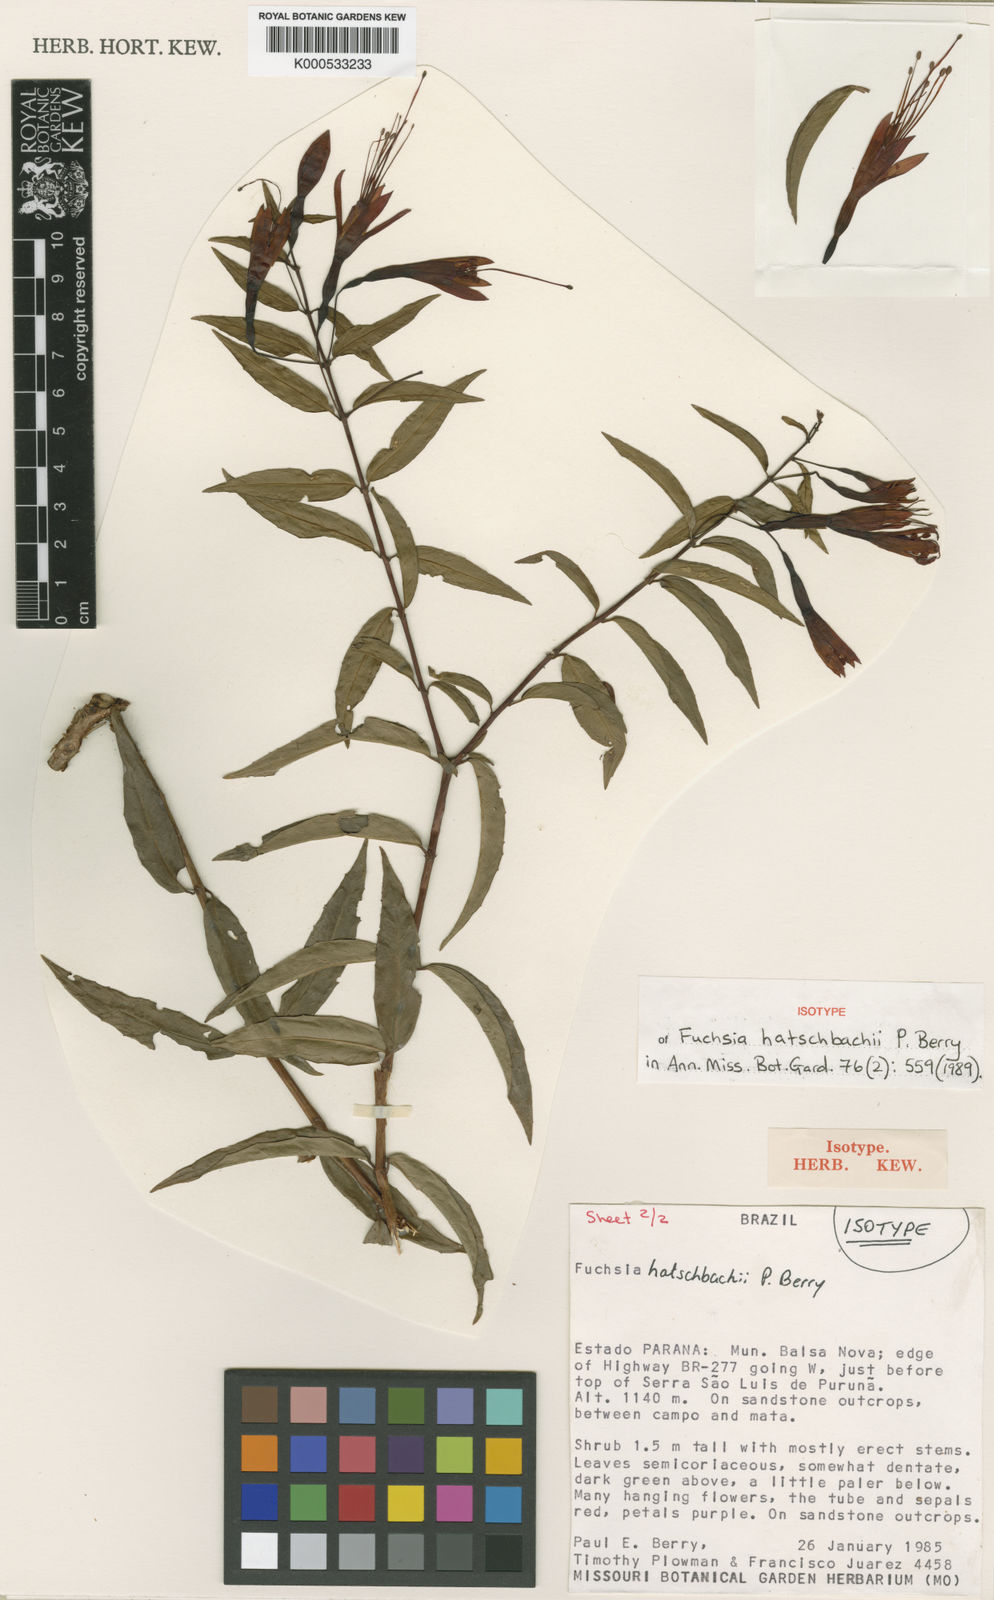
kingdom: Plantae
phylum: Tracheophyta
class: Magnoliopsida
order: Myrtales
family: Onagraceae
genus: Fuchsia
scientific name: Fuchsia hatschbachii
